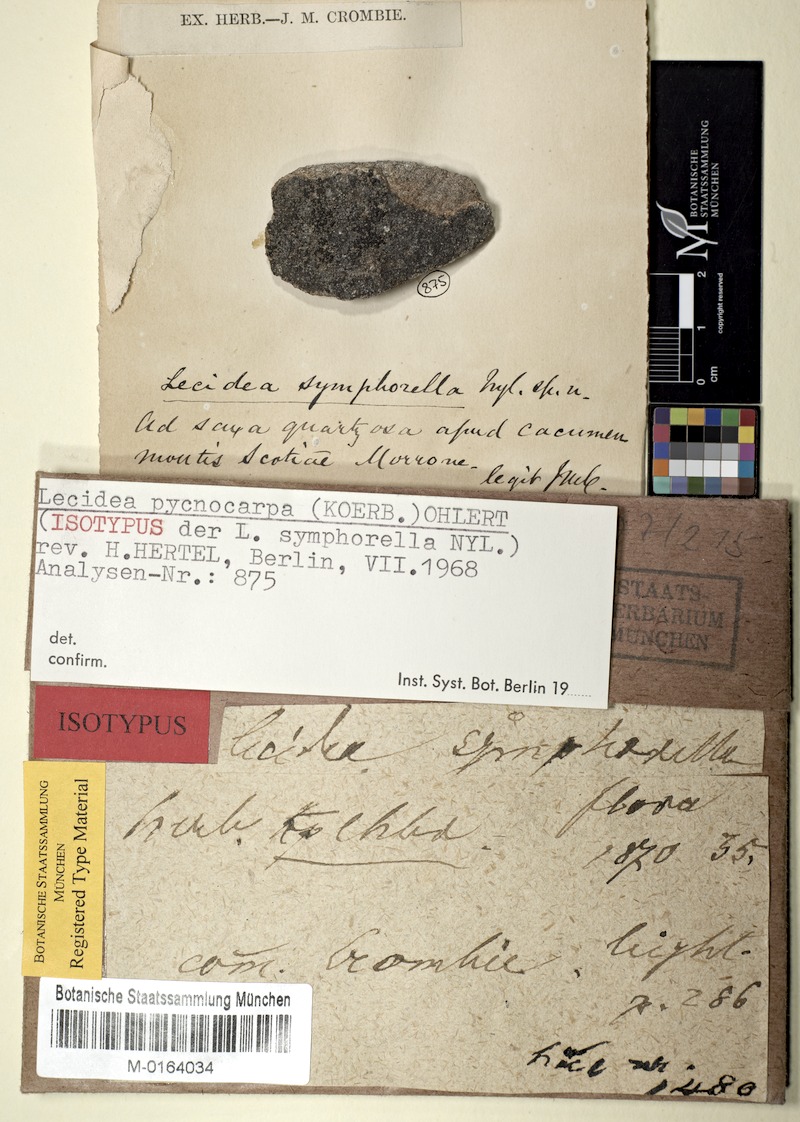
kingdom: Fungi
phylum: Ascomycota
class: Lecanoromycetes
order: Lecanorales
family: Lecanoraceae
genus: Miriquidica
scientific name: Miriquidica pycnocarpa
